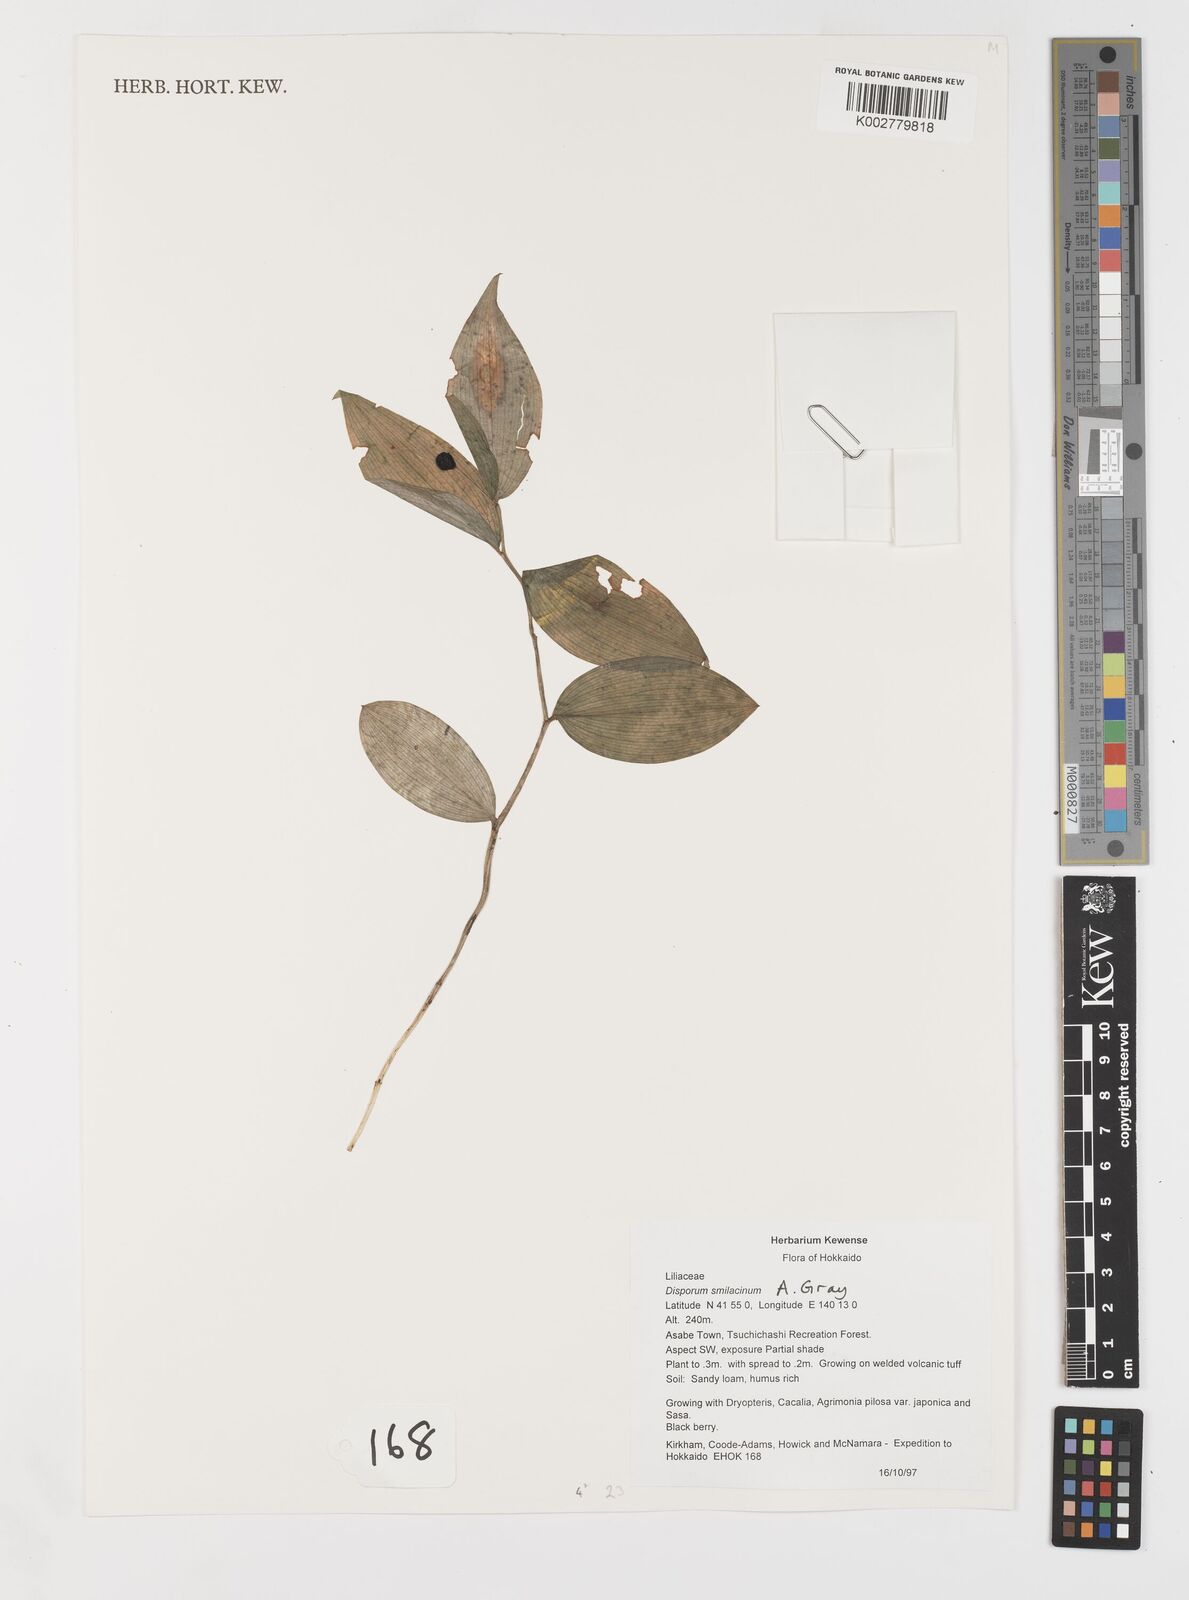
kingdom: Plantae
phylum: Tracheophyta
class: Liliopsida
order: Liliales
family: Colchicaceae
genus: Disporum
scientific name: Disporum smilacinum
